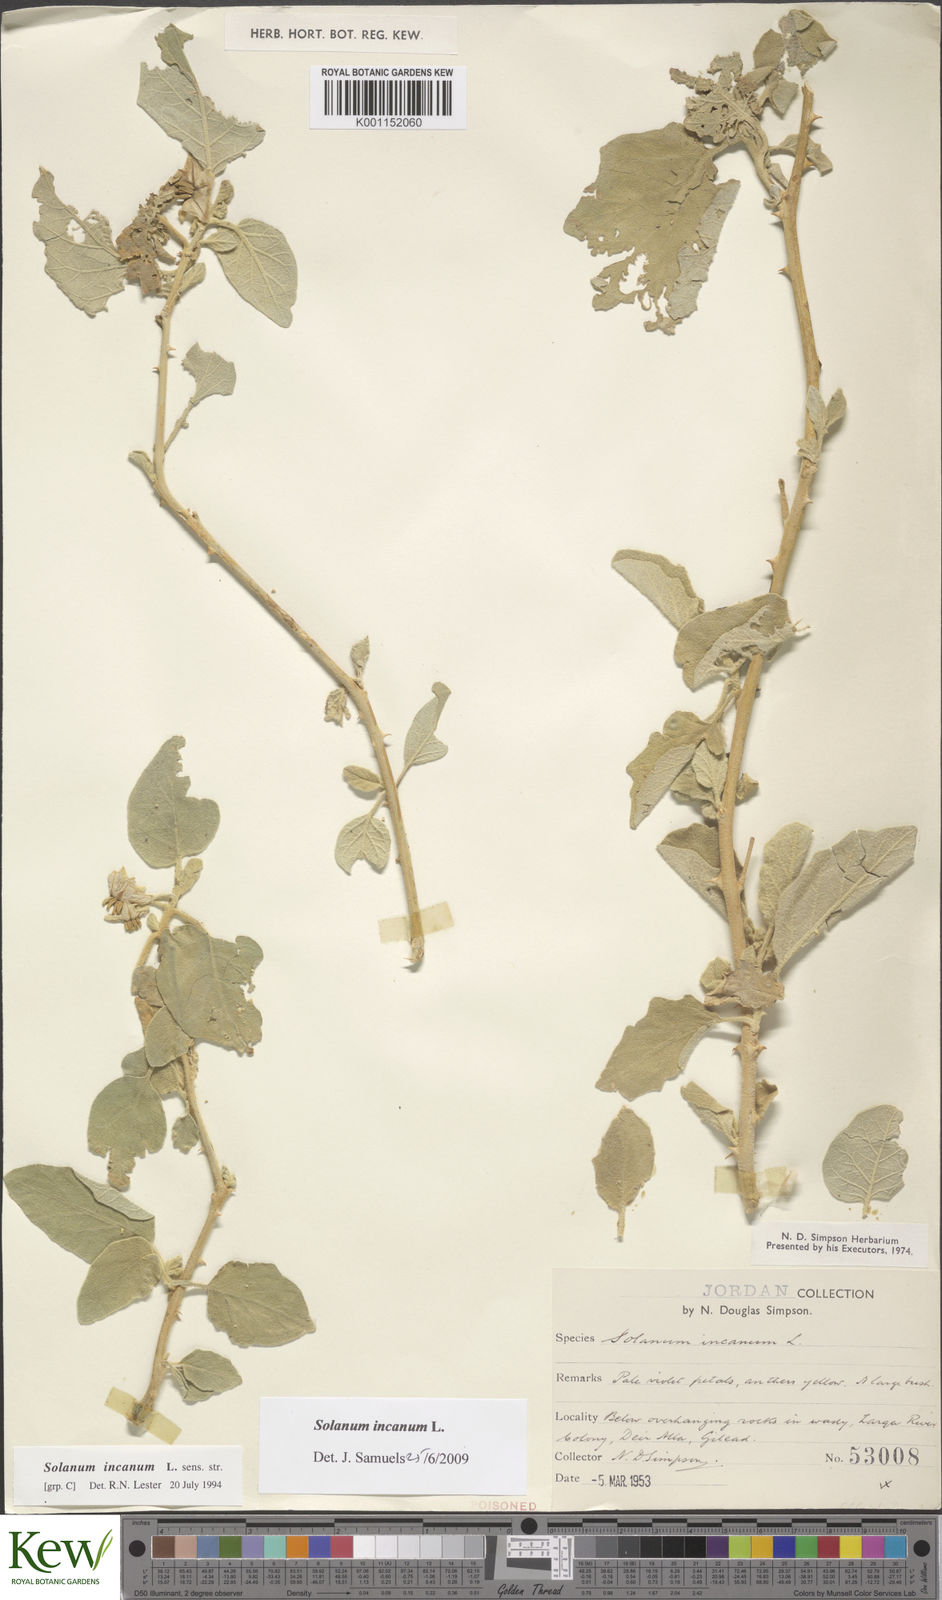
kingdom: Plantae
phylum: Tracheophyta
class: Magnoliopsida
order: Solanales
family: Solanaceae
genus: Solanum
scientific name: Solanum incanum
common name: Bitter apple
